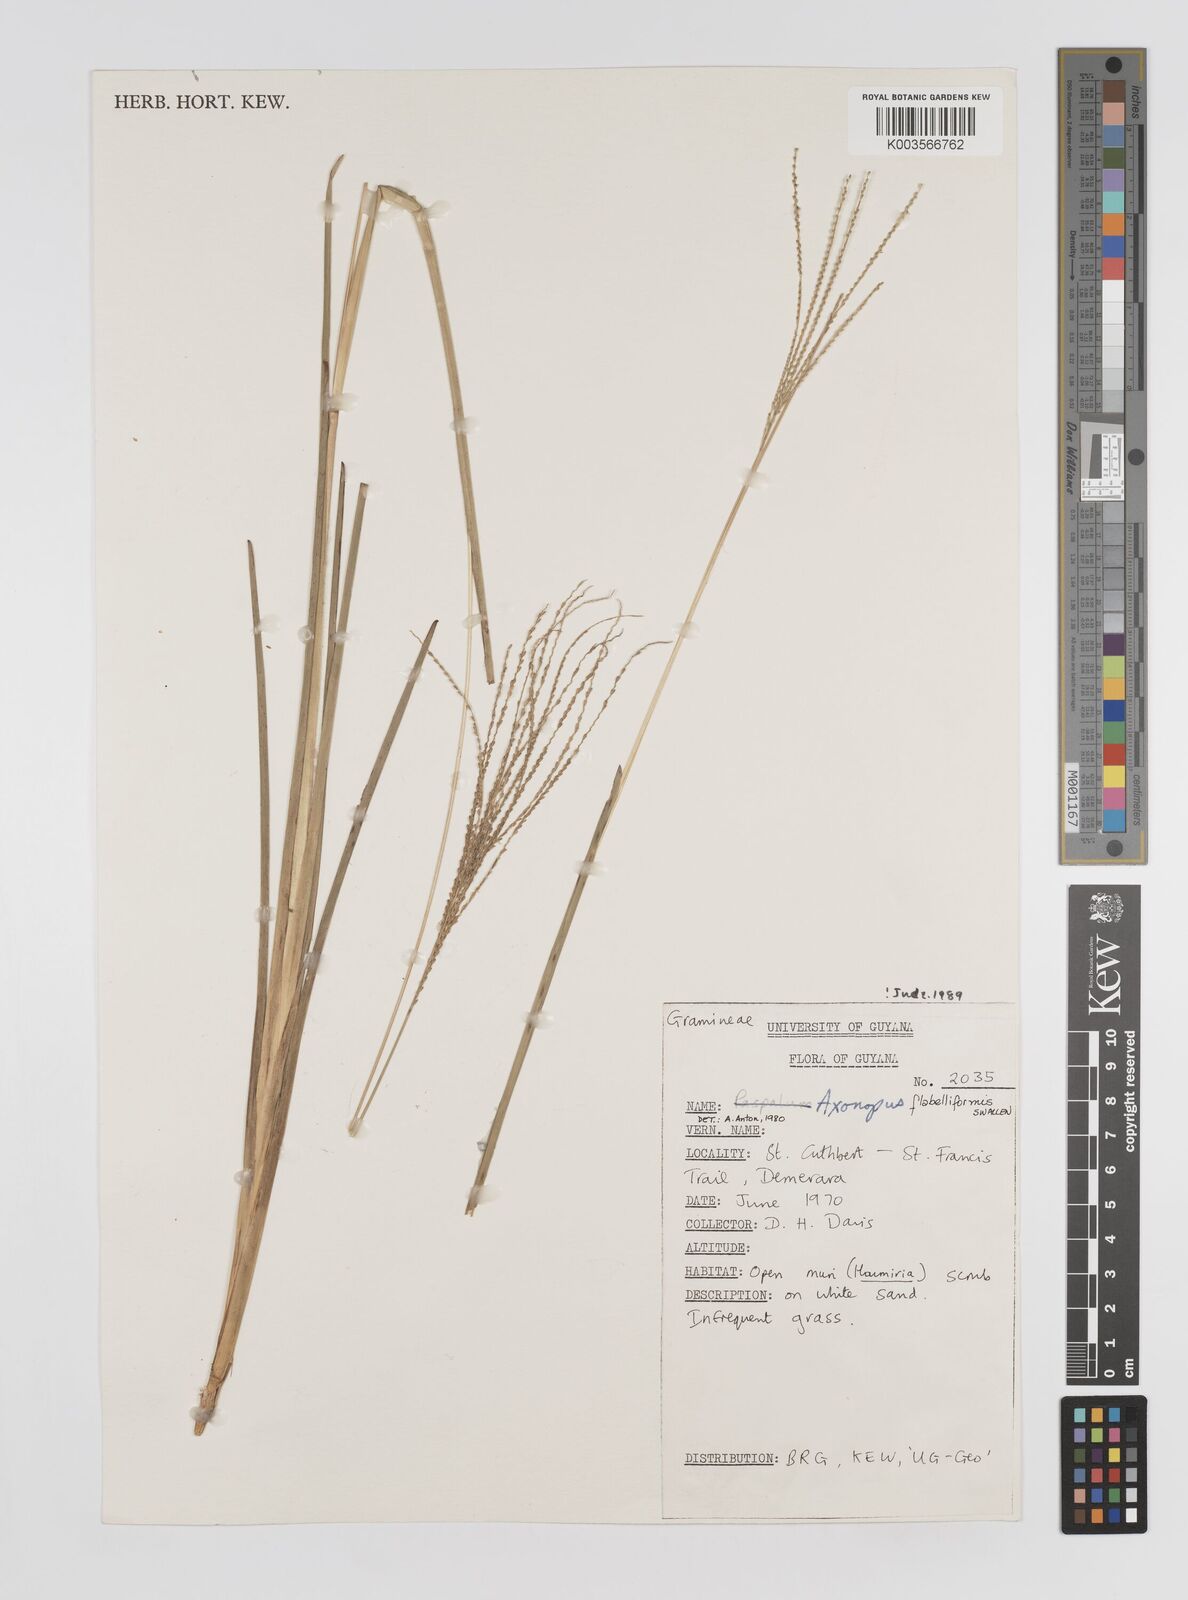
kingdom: Plantae
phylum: Tracheophyta
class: Liliopsida
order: Poales
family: Poaceae
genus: Axonopus
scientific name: Axonopus flabelliformis
